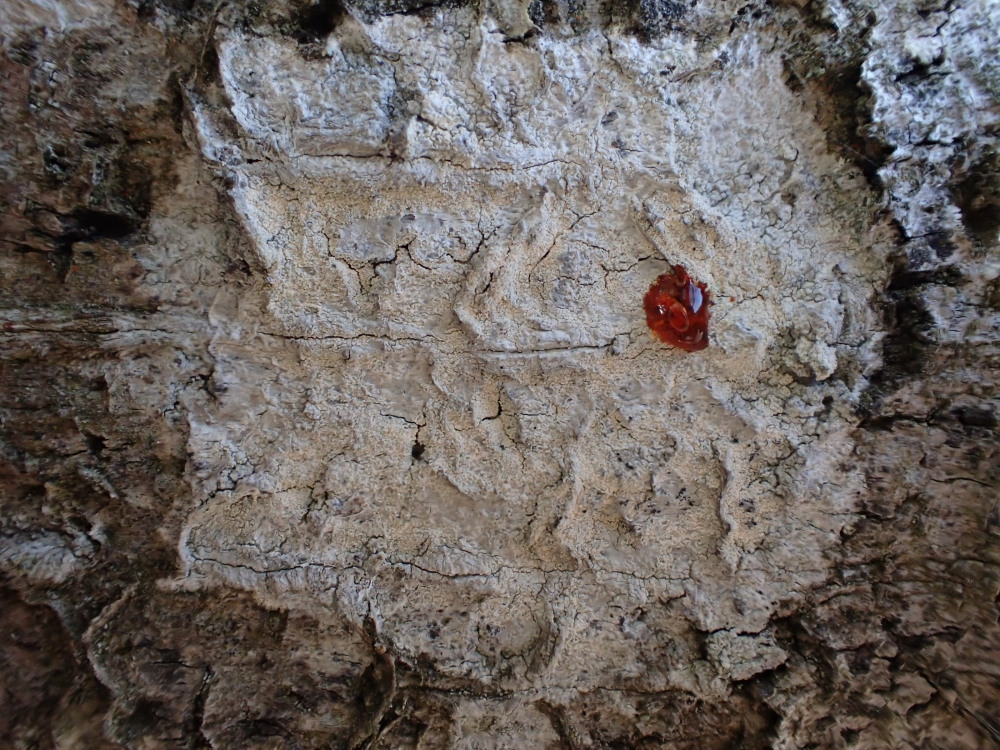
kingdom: Fungi
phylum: Ascomycota
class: Lecanoromycetes
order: Ostropales
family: Phlyctidaceae
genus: Phlyctis
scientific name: Phlyctis argena
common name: almindelig sølvlav
